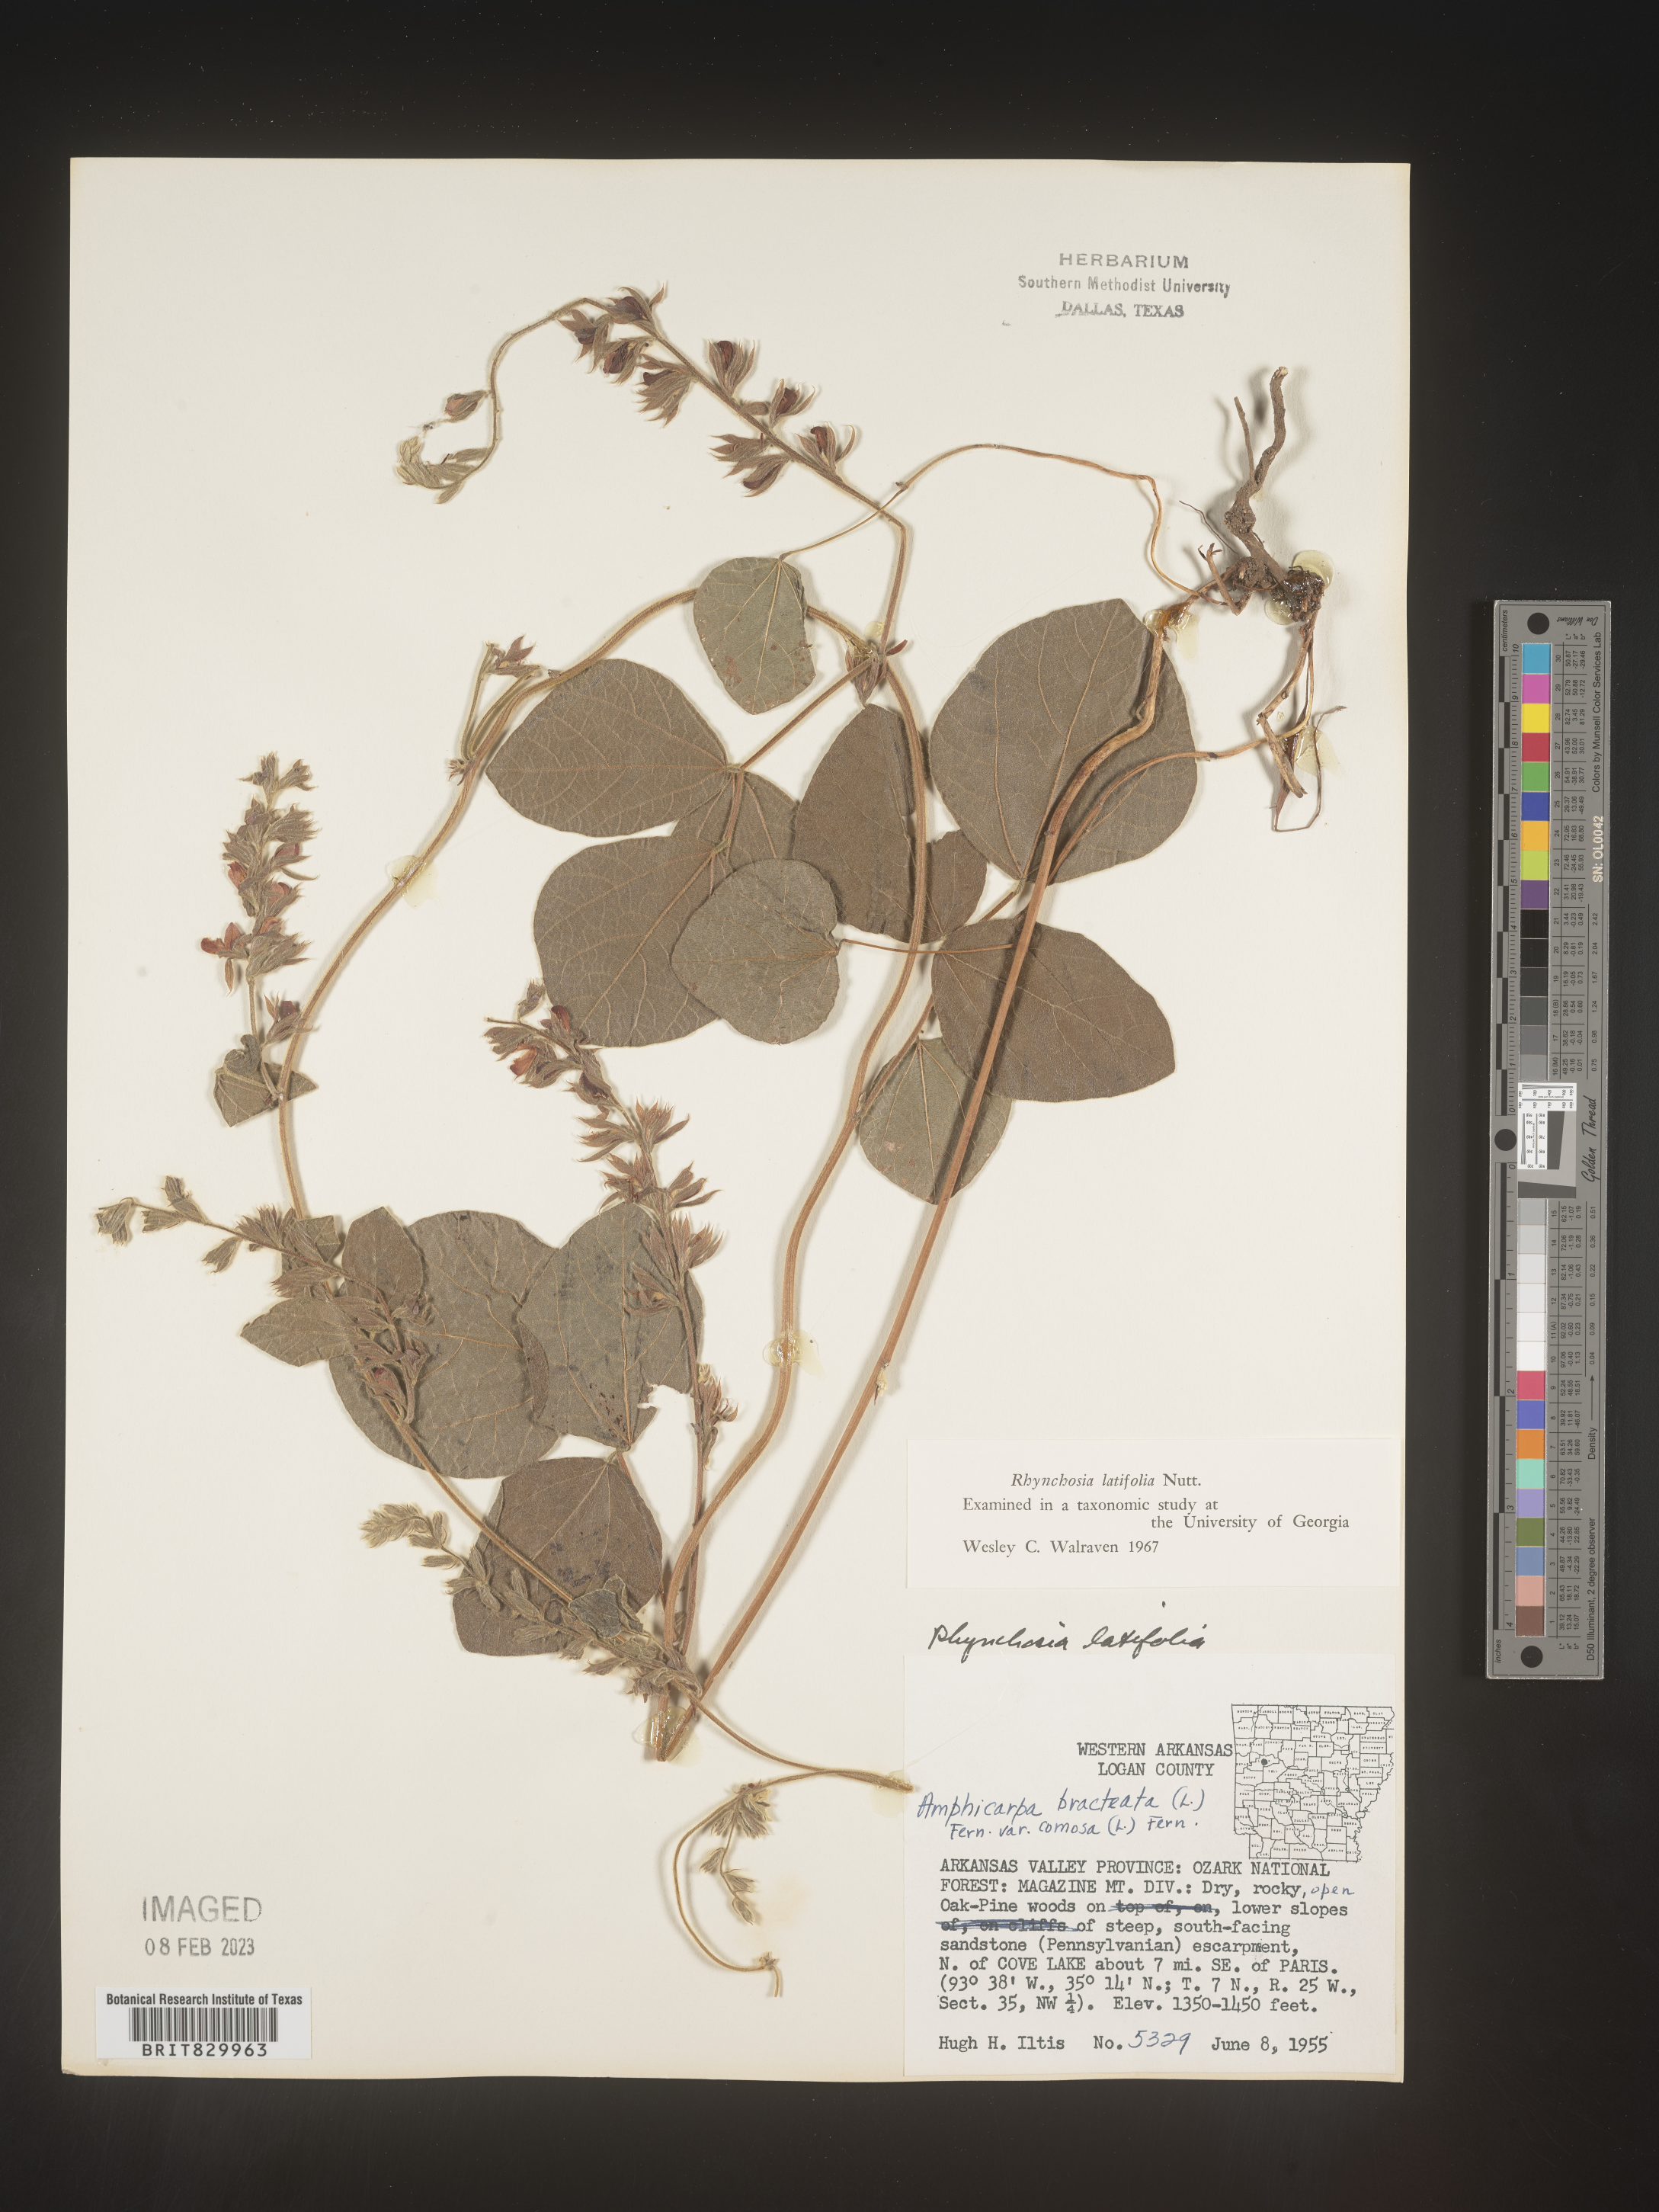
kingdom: Plantae
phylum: Tracheophyta
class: Magnoliopsida
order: Fabales
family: Fabaceae
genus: Rhynchosia
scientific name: Rhynchosia latifolia
